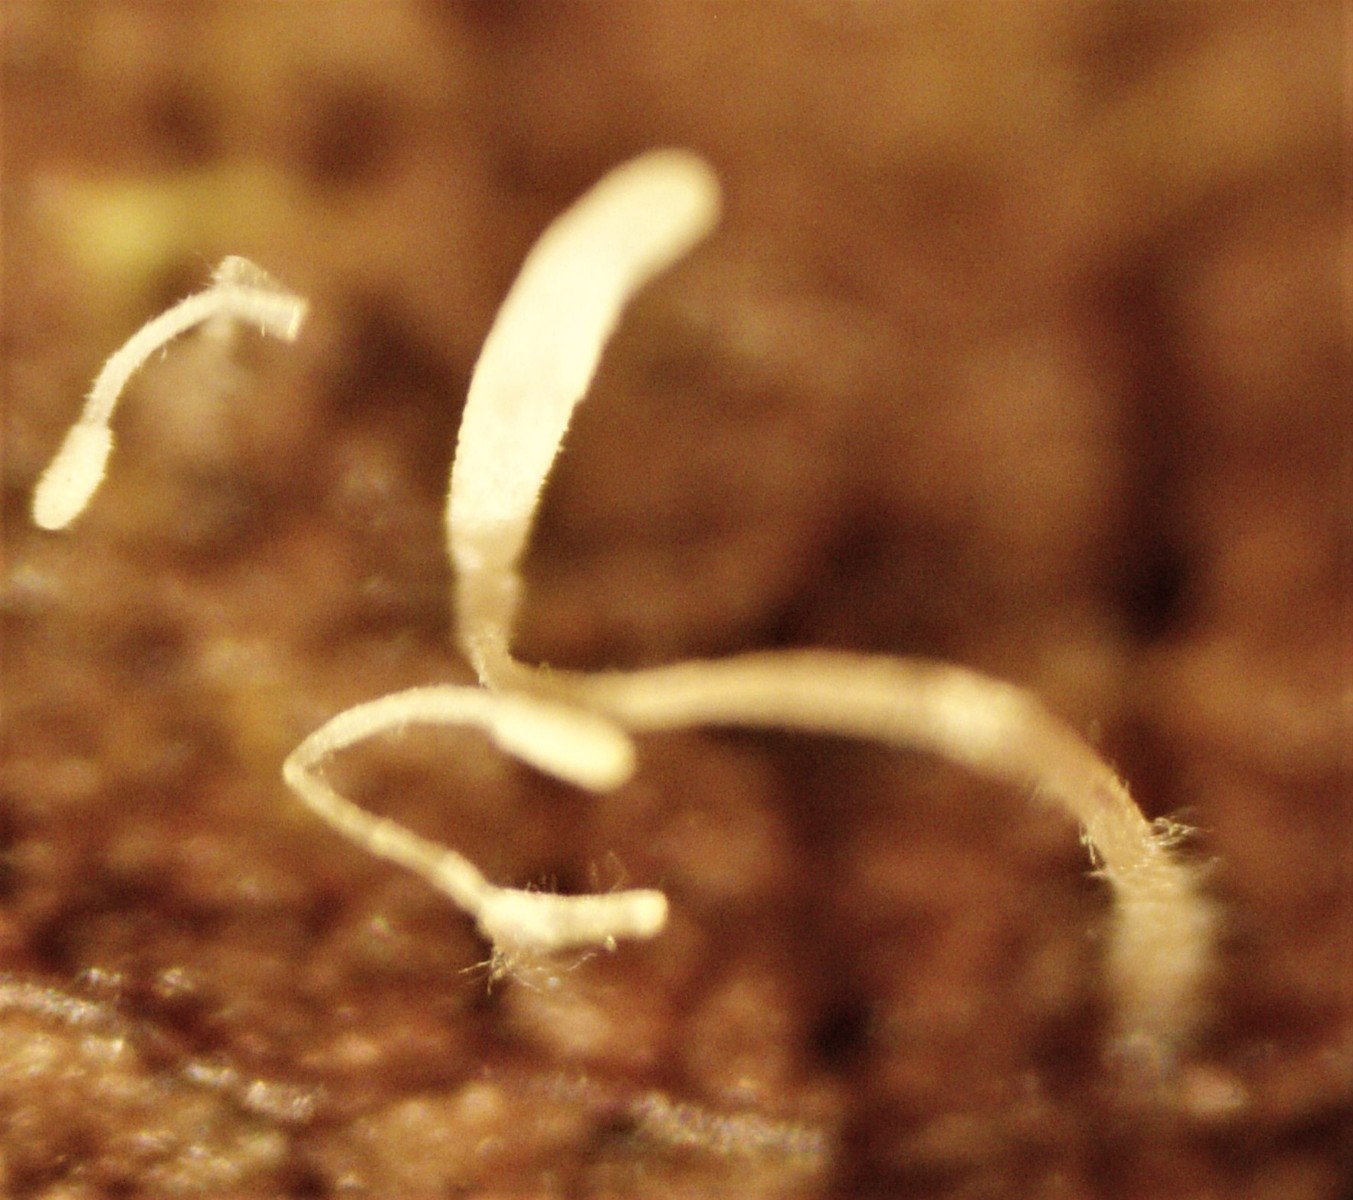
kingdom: Fungi
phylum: Basidiomycota
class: Agaricomycetes
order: Agaricales
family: Typhulaceae
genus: Typhula
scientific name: Typhula setipes
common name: liden trådkølle
